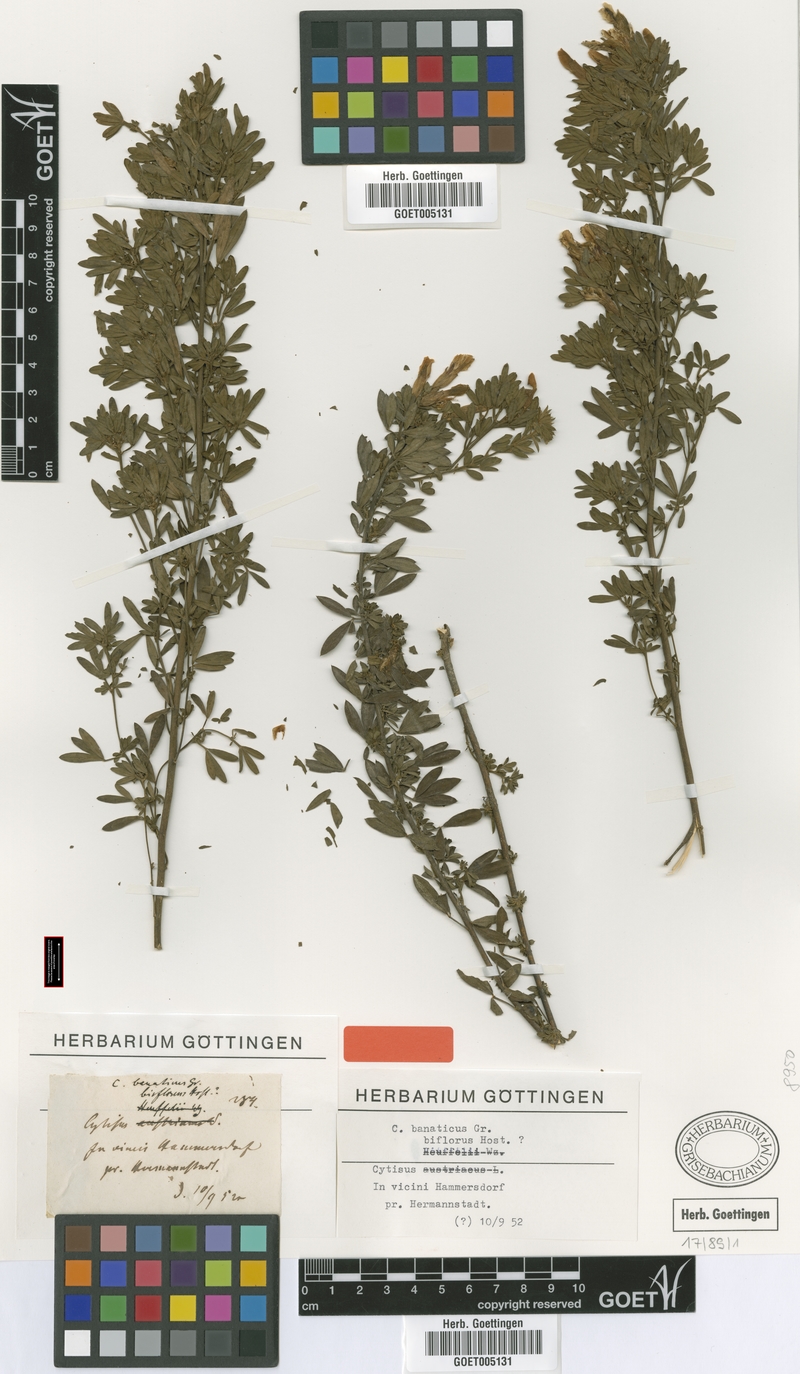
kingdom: Plantae
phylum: Tracheophyta
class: Magnoliopsida
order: Fabales
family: Fabaceae
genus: Chamaecytisus
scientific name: Chamaecytisus banaticus
